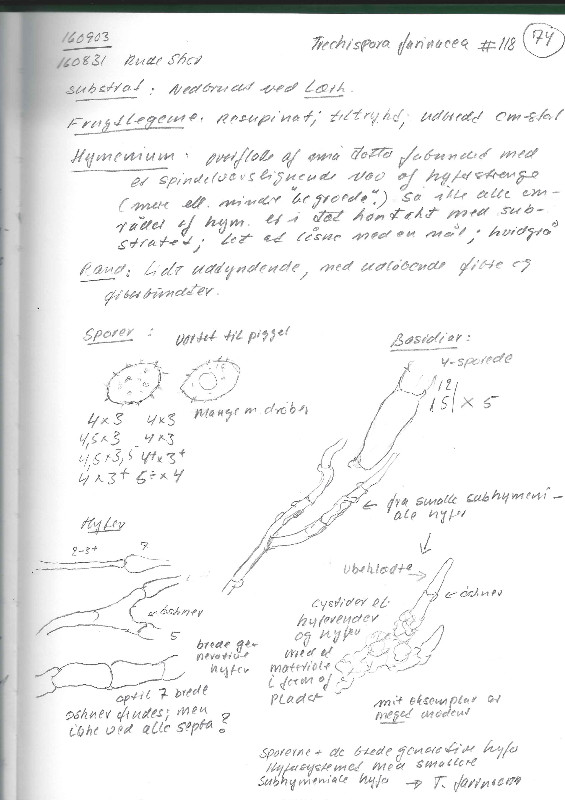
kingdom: Fungi
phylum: Basidiomycota
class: Agaricomycetes
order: Trechisporales
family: Sistotremataceae
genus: Trechispora
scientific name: Trechispora farinacea
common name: pigget vathinde
